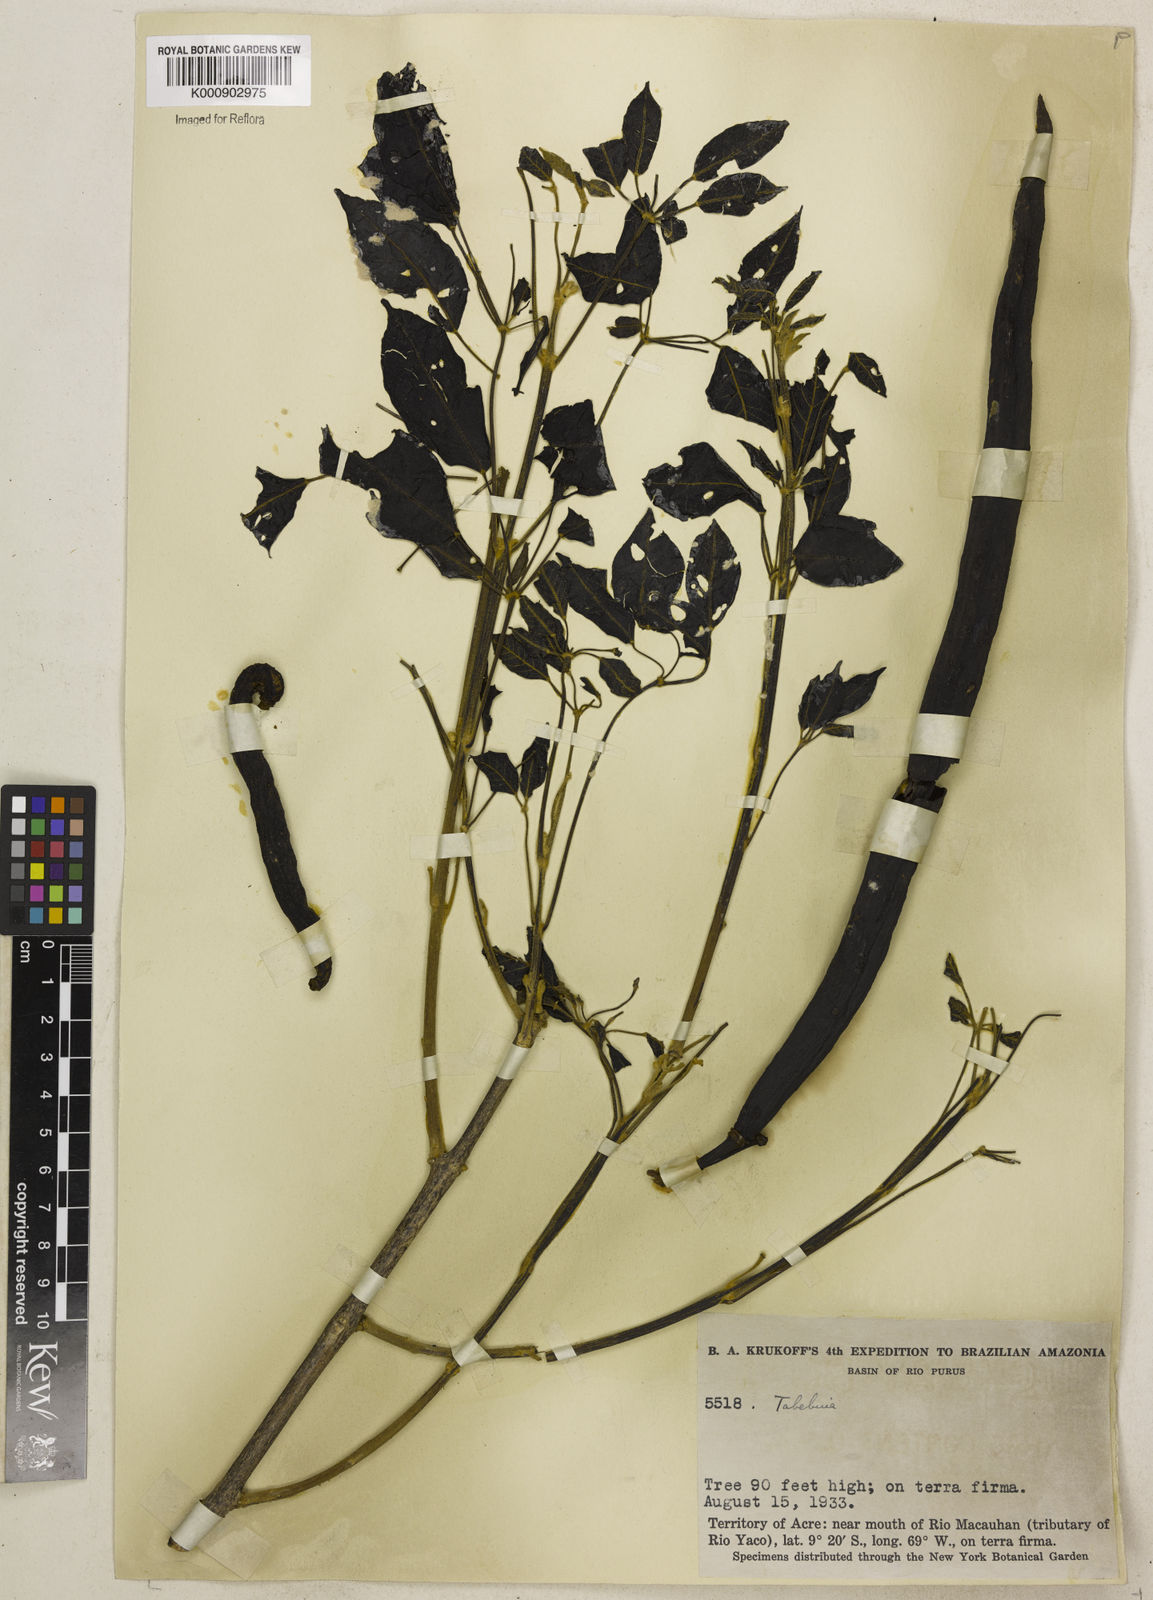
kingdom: Plantae
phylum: Tracheophyta
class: Magnoliopsida
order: Lamiales
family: Bignoniaceae
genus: Tabebuia
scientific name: Tabebuia
